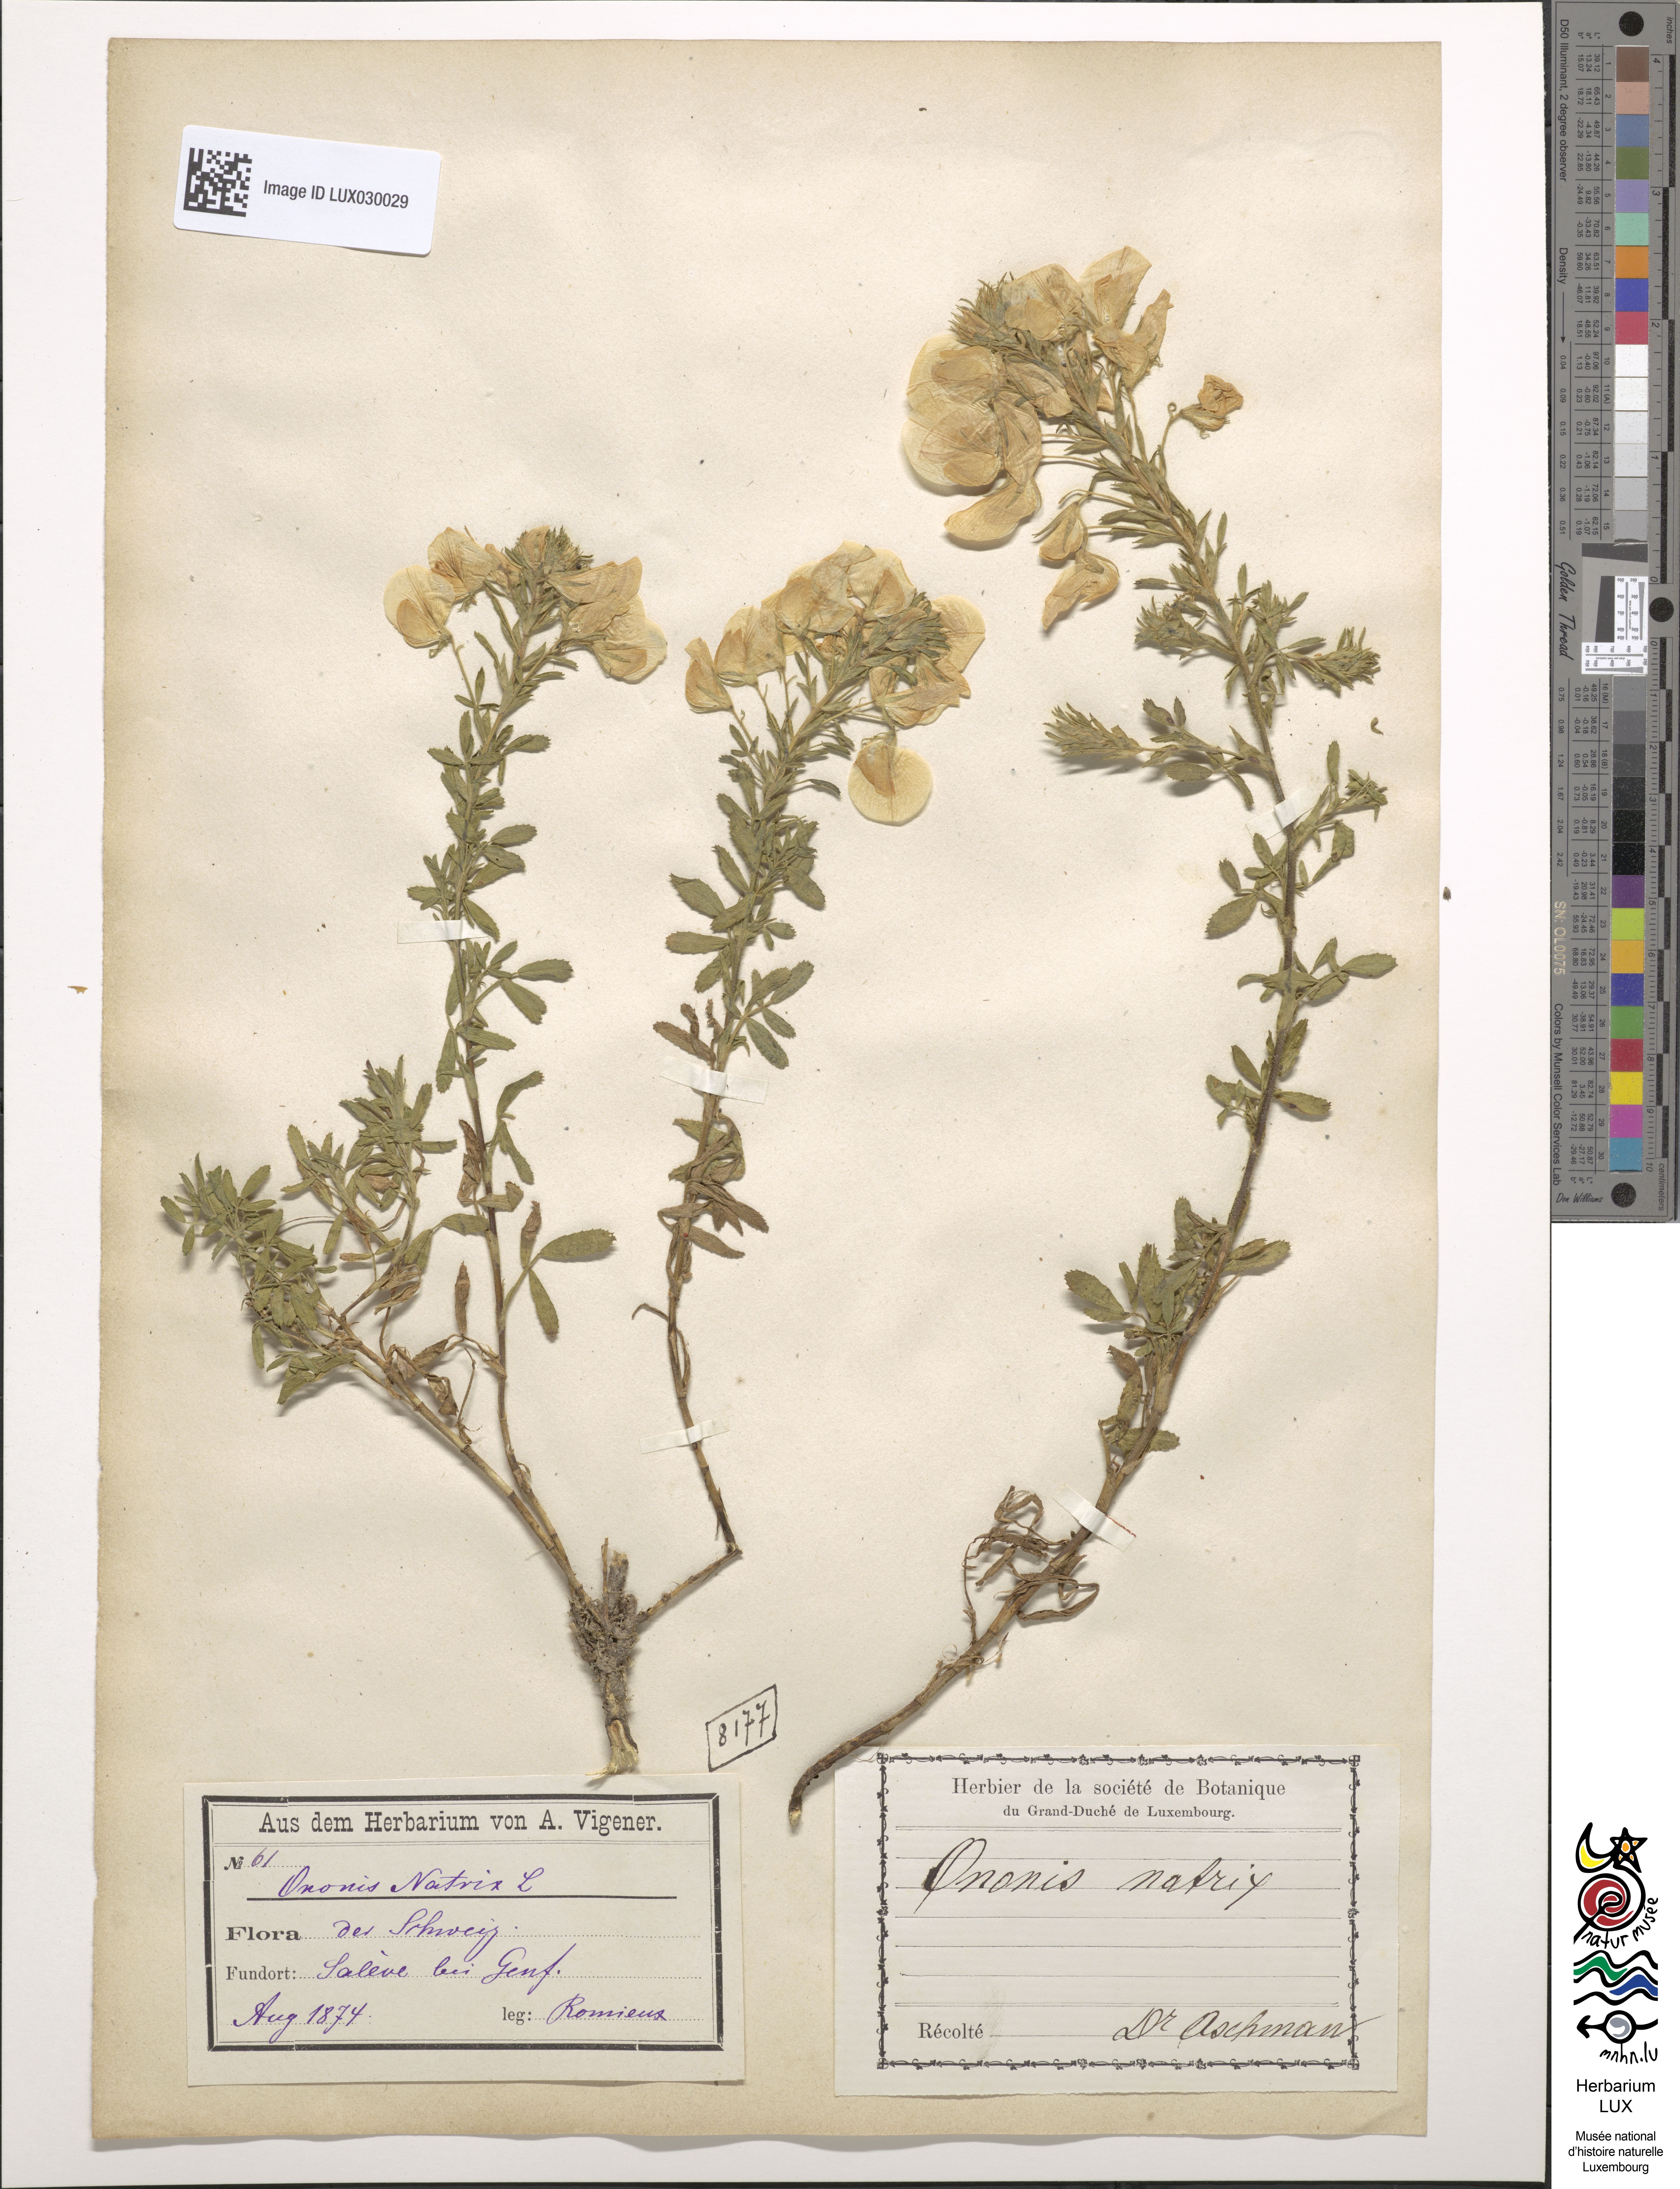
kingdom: Plantae
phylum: Tracheophyta
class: Magnoliopsida
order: Fabales
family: Fabaceae
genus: Ononis
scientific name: Ononis natrix
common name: Yellow restharrow
